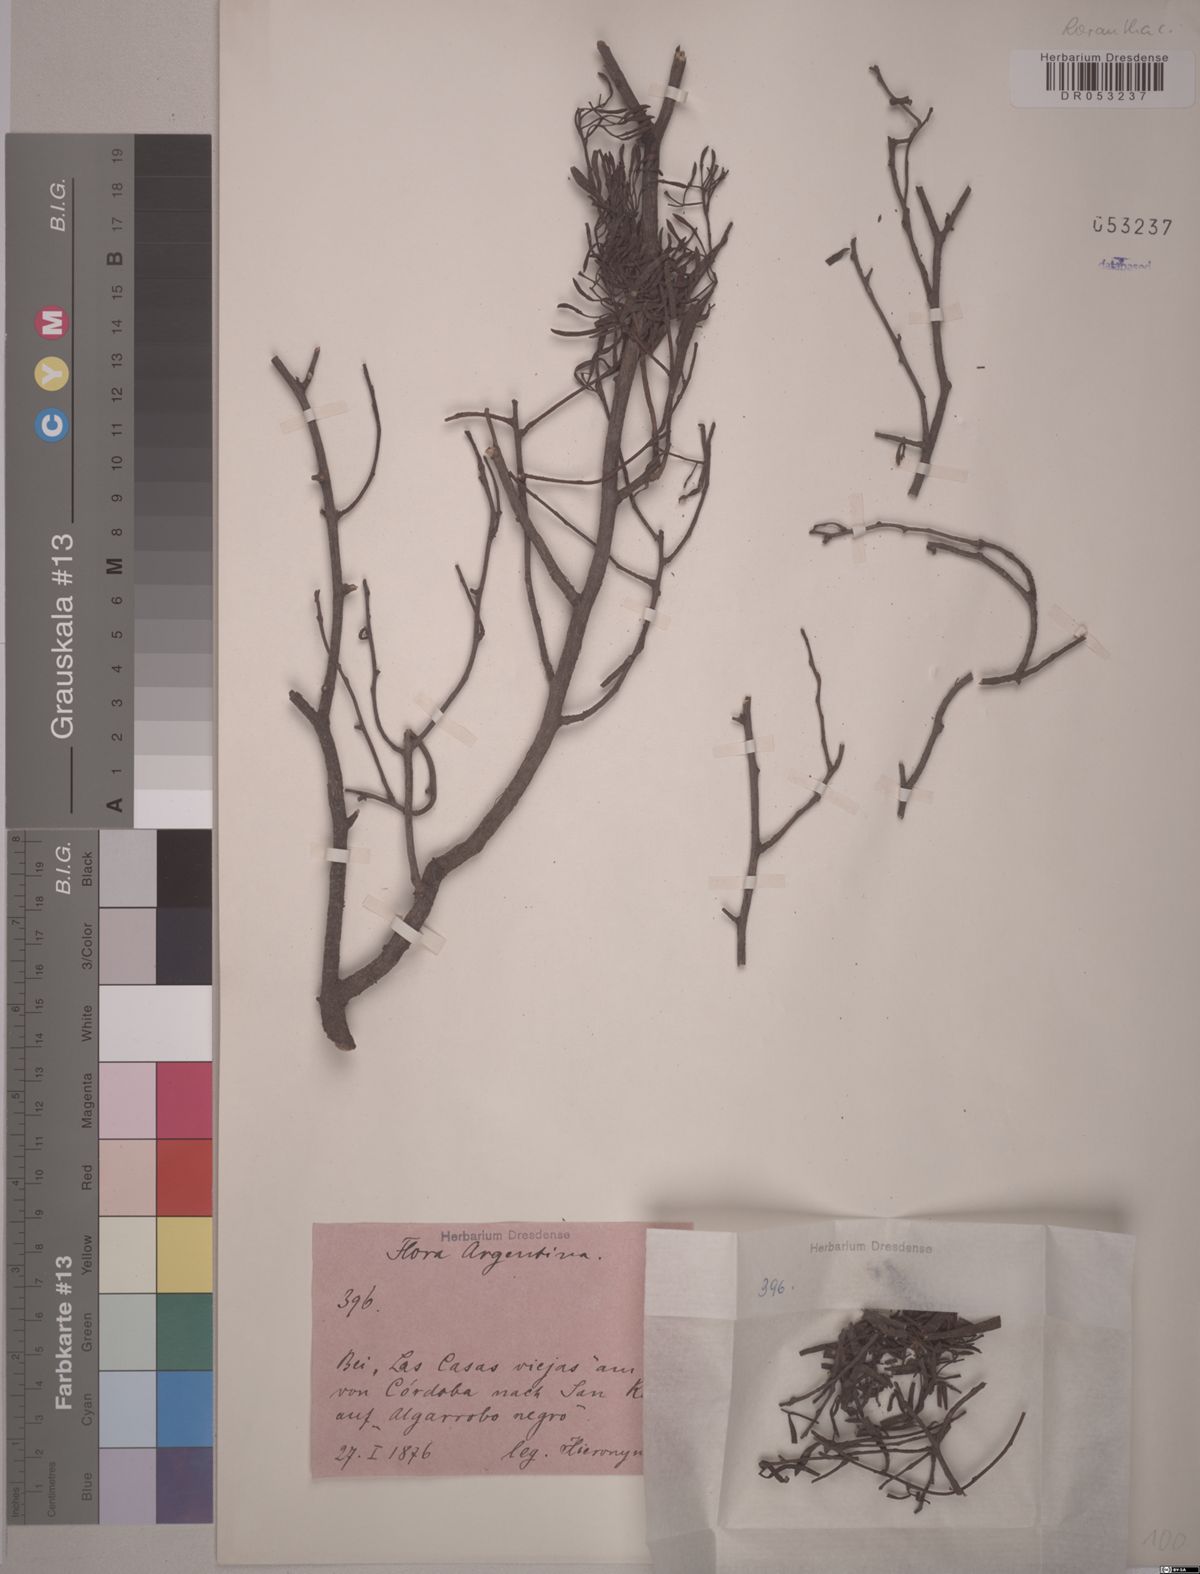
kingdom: Plantae
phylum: Tracheophyta
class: Magnoliopsida
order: Santalales
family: Loranthaceae
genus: Tripodanthus
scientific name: Tripodanthus flagellaris
